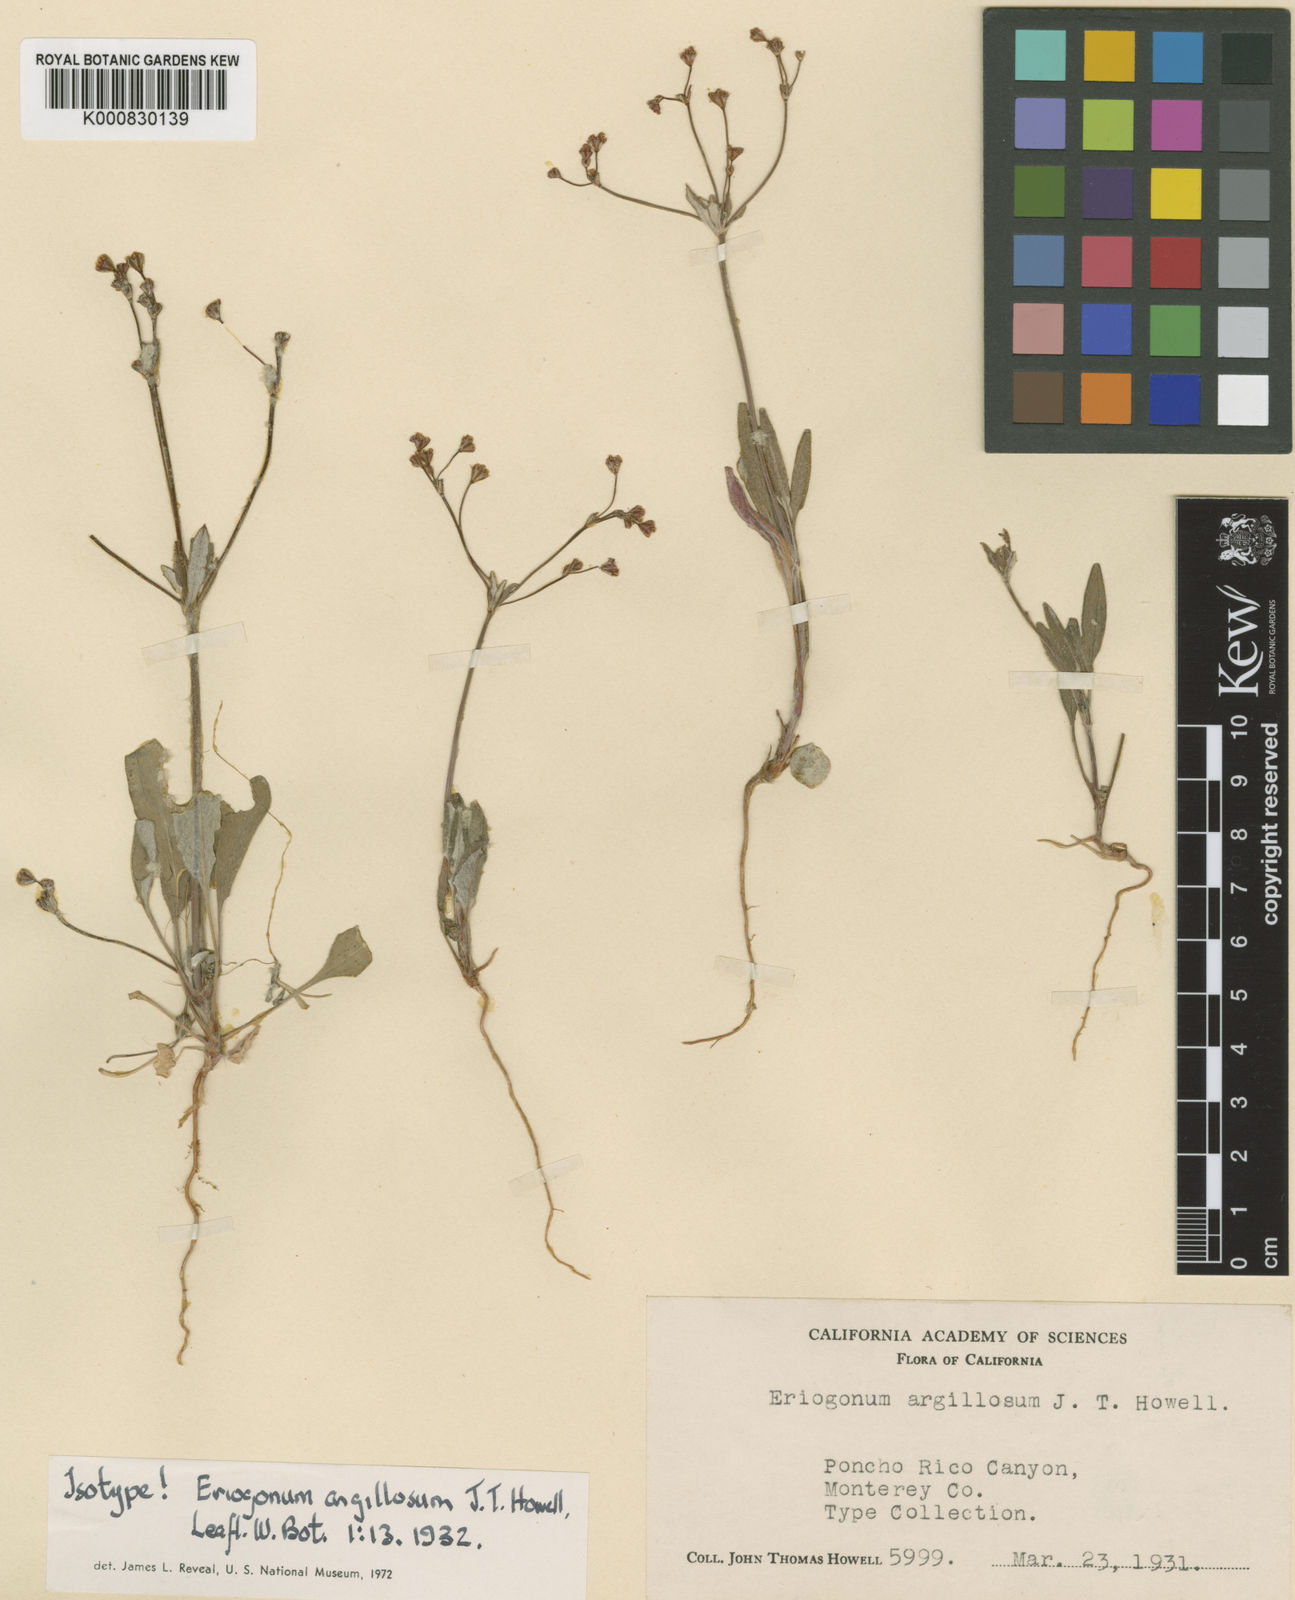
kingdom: Plantae
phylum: Tracheophyta
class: Magnoliopsida
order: Caryophyllales
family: Polygonaceae
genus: Eriogonum
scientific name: Eriogonum argillosum
